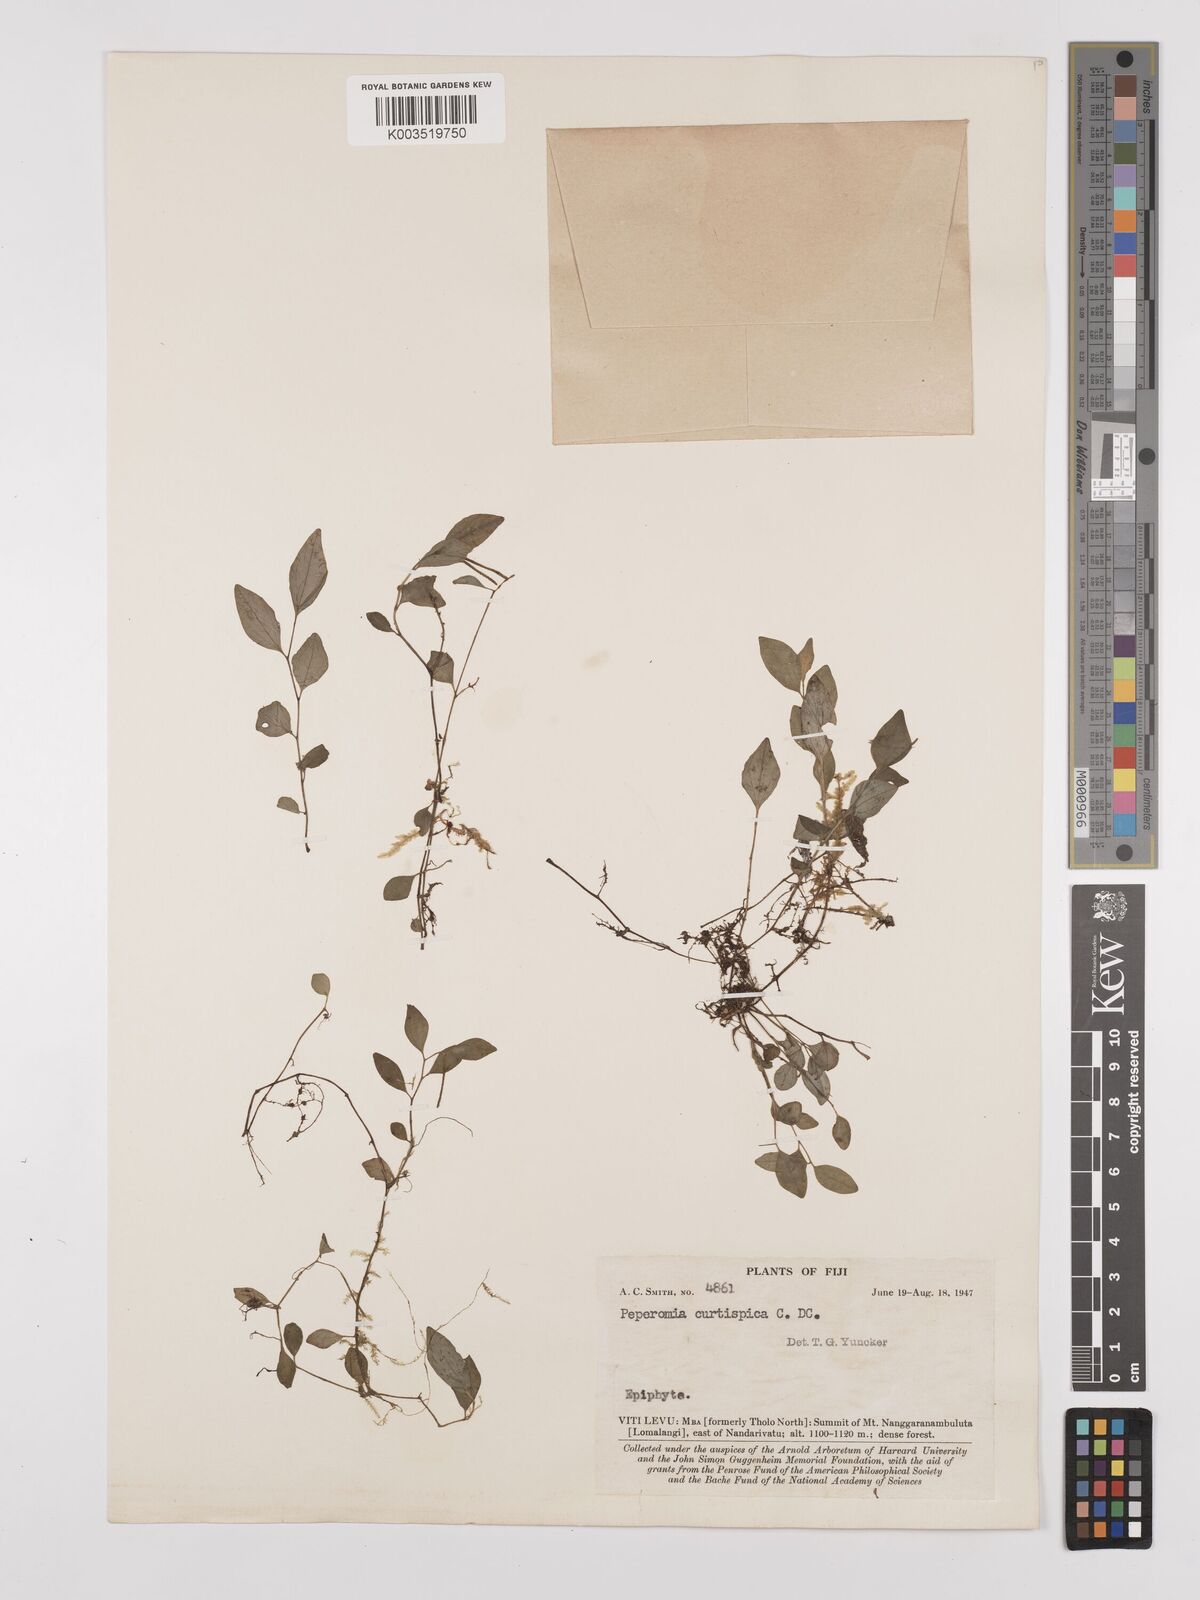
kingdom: Plantae
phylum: Tracheophyta
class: Magnoliopsida
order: Piperales
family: Piperaceae
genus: Peperomia
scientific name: Peperomia curtispica
